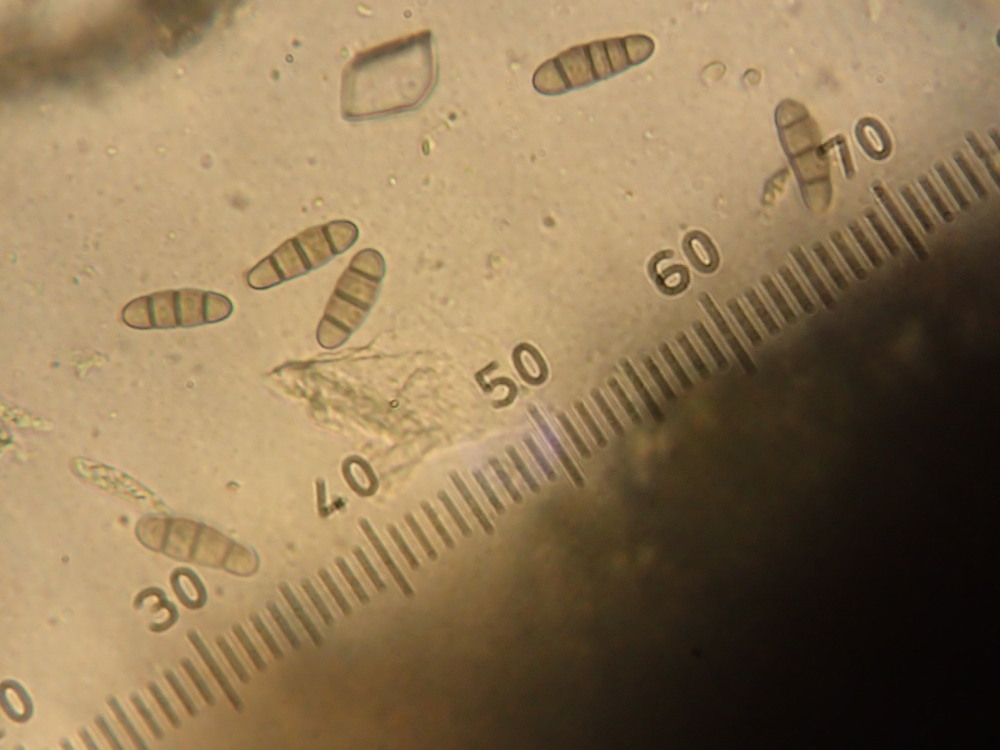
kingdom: Fungi
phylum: Ascomycota
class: Dothideomycetes
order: Hysteriales
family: Hysteriaceae
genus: Hysterium
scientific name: Hysterium acuminatum
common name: almindelig kulmund
